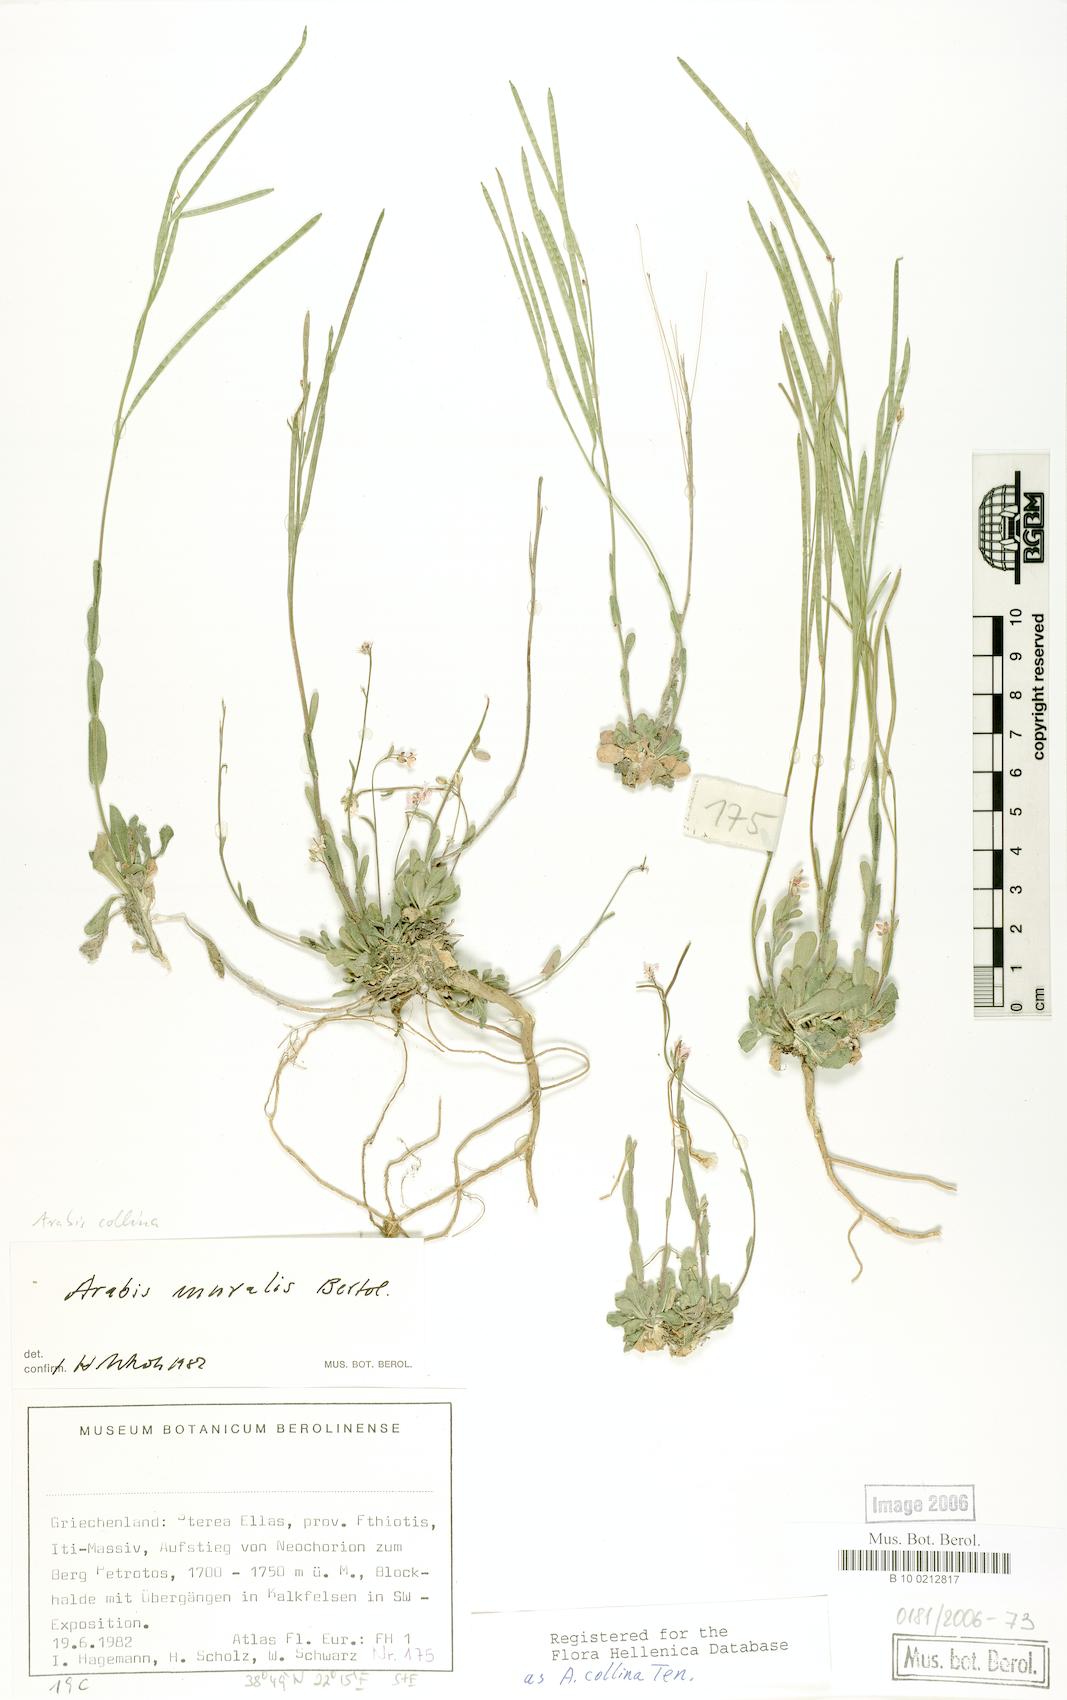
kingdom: Plantae
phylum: Tracheophyta
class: Magnoliopsida
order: Brassicales
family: Brassicaceae
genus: Arabis
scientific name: Arabis collina
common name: Rosy cress
